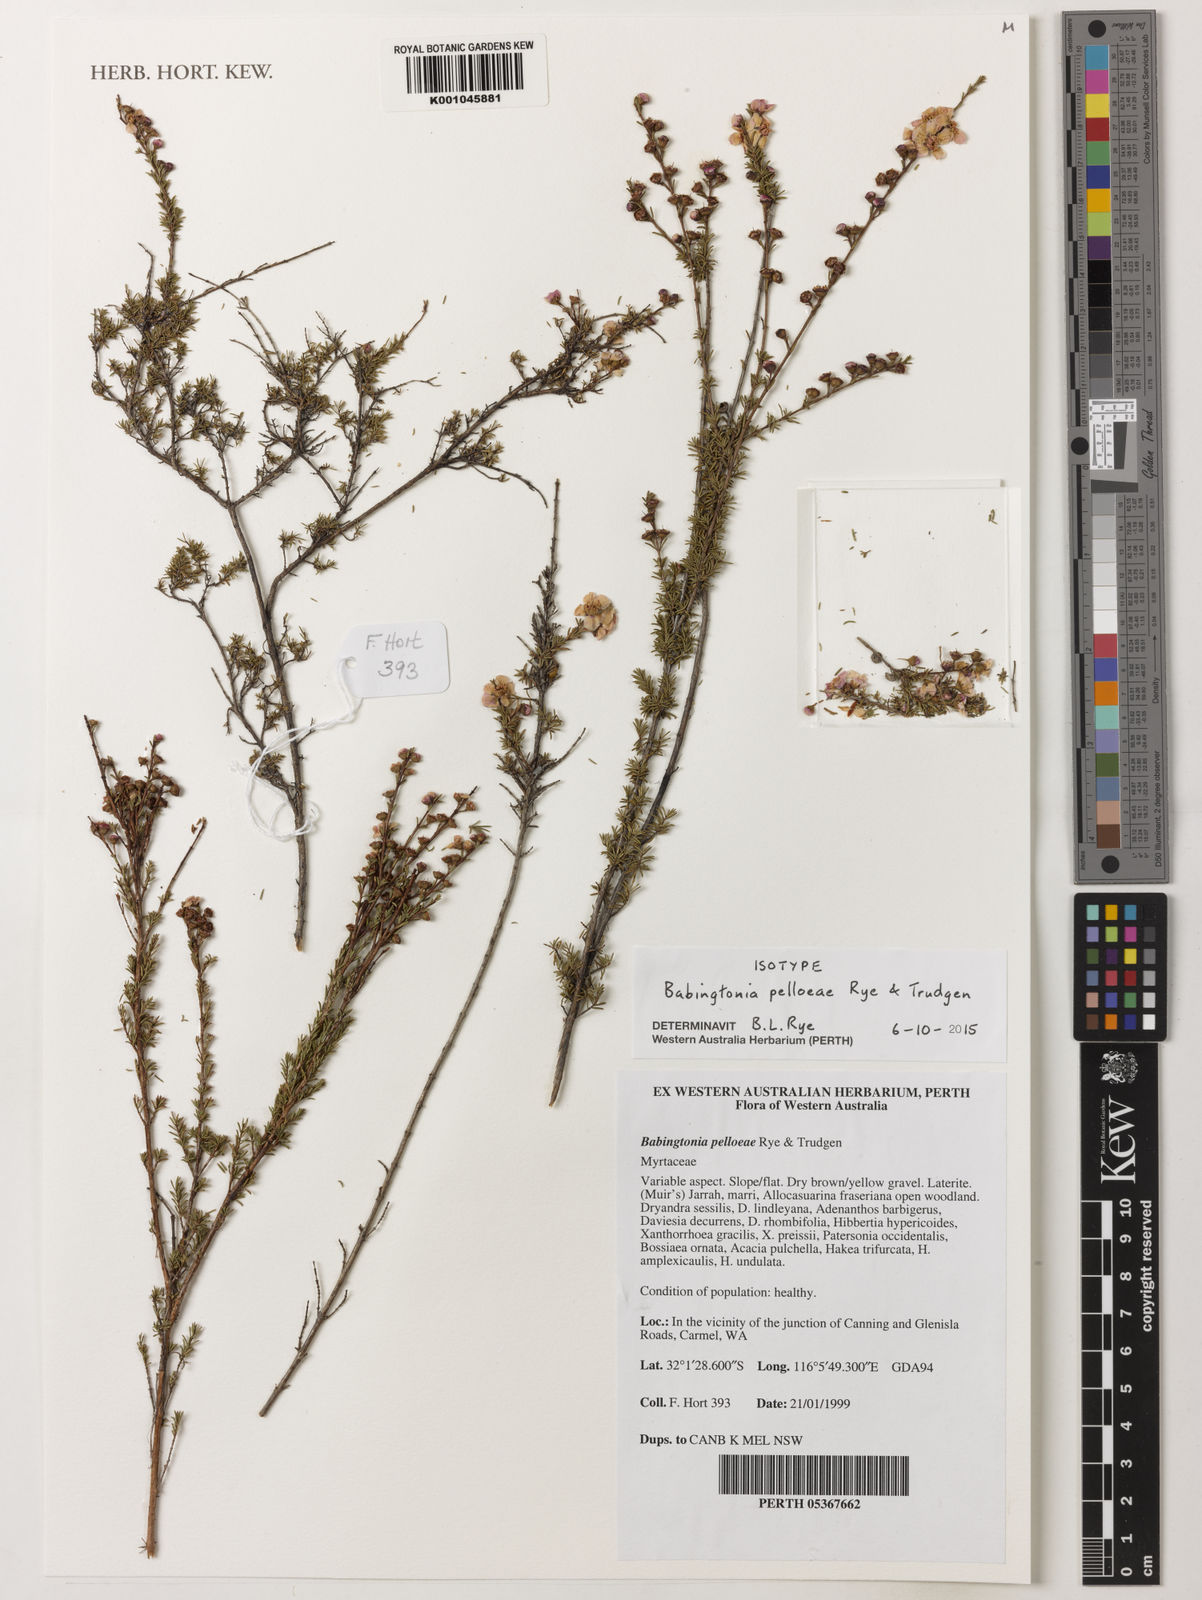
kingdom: Plantae
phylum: Tracheophyta
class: Magnoliopsida
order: Myrtales
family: Myrtaceae
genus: Babingtonia
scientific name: Babingtonia
